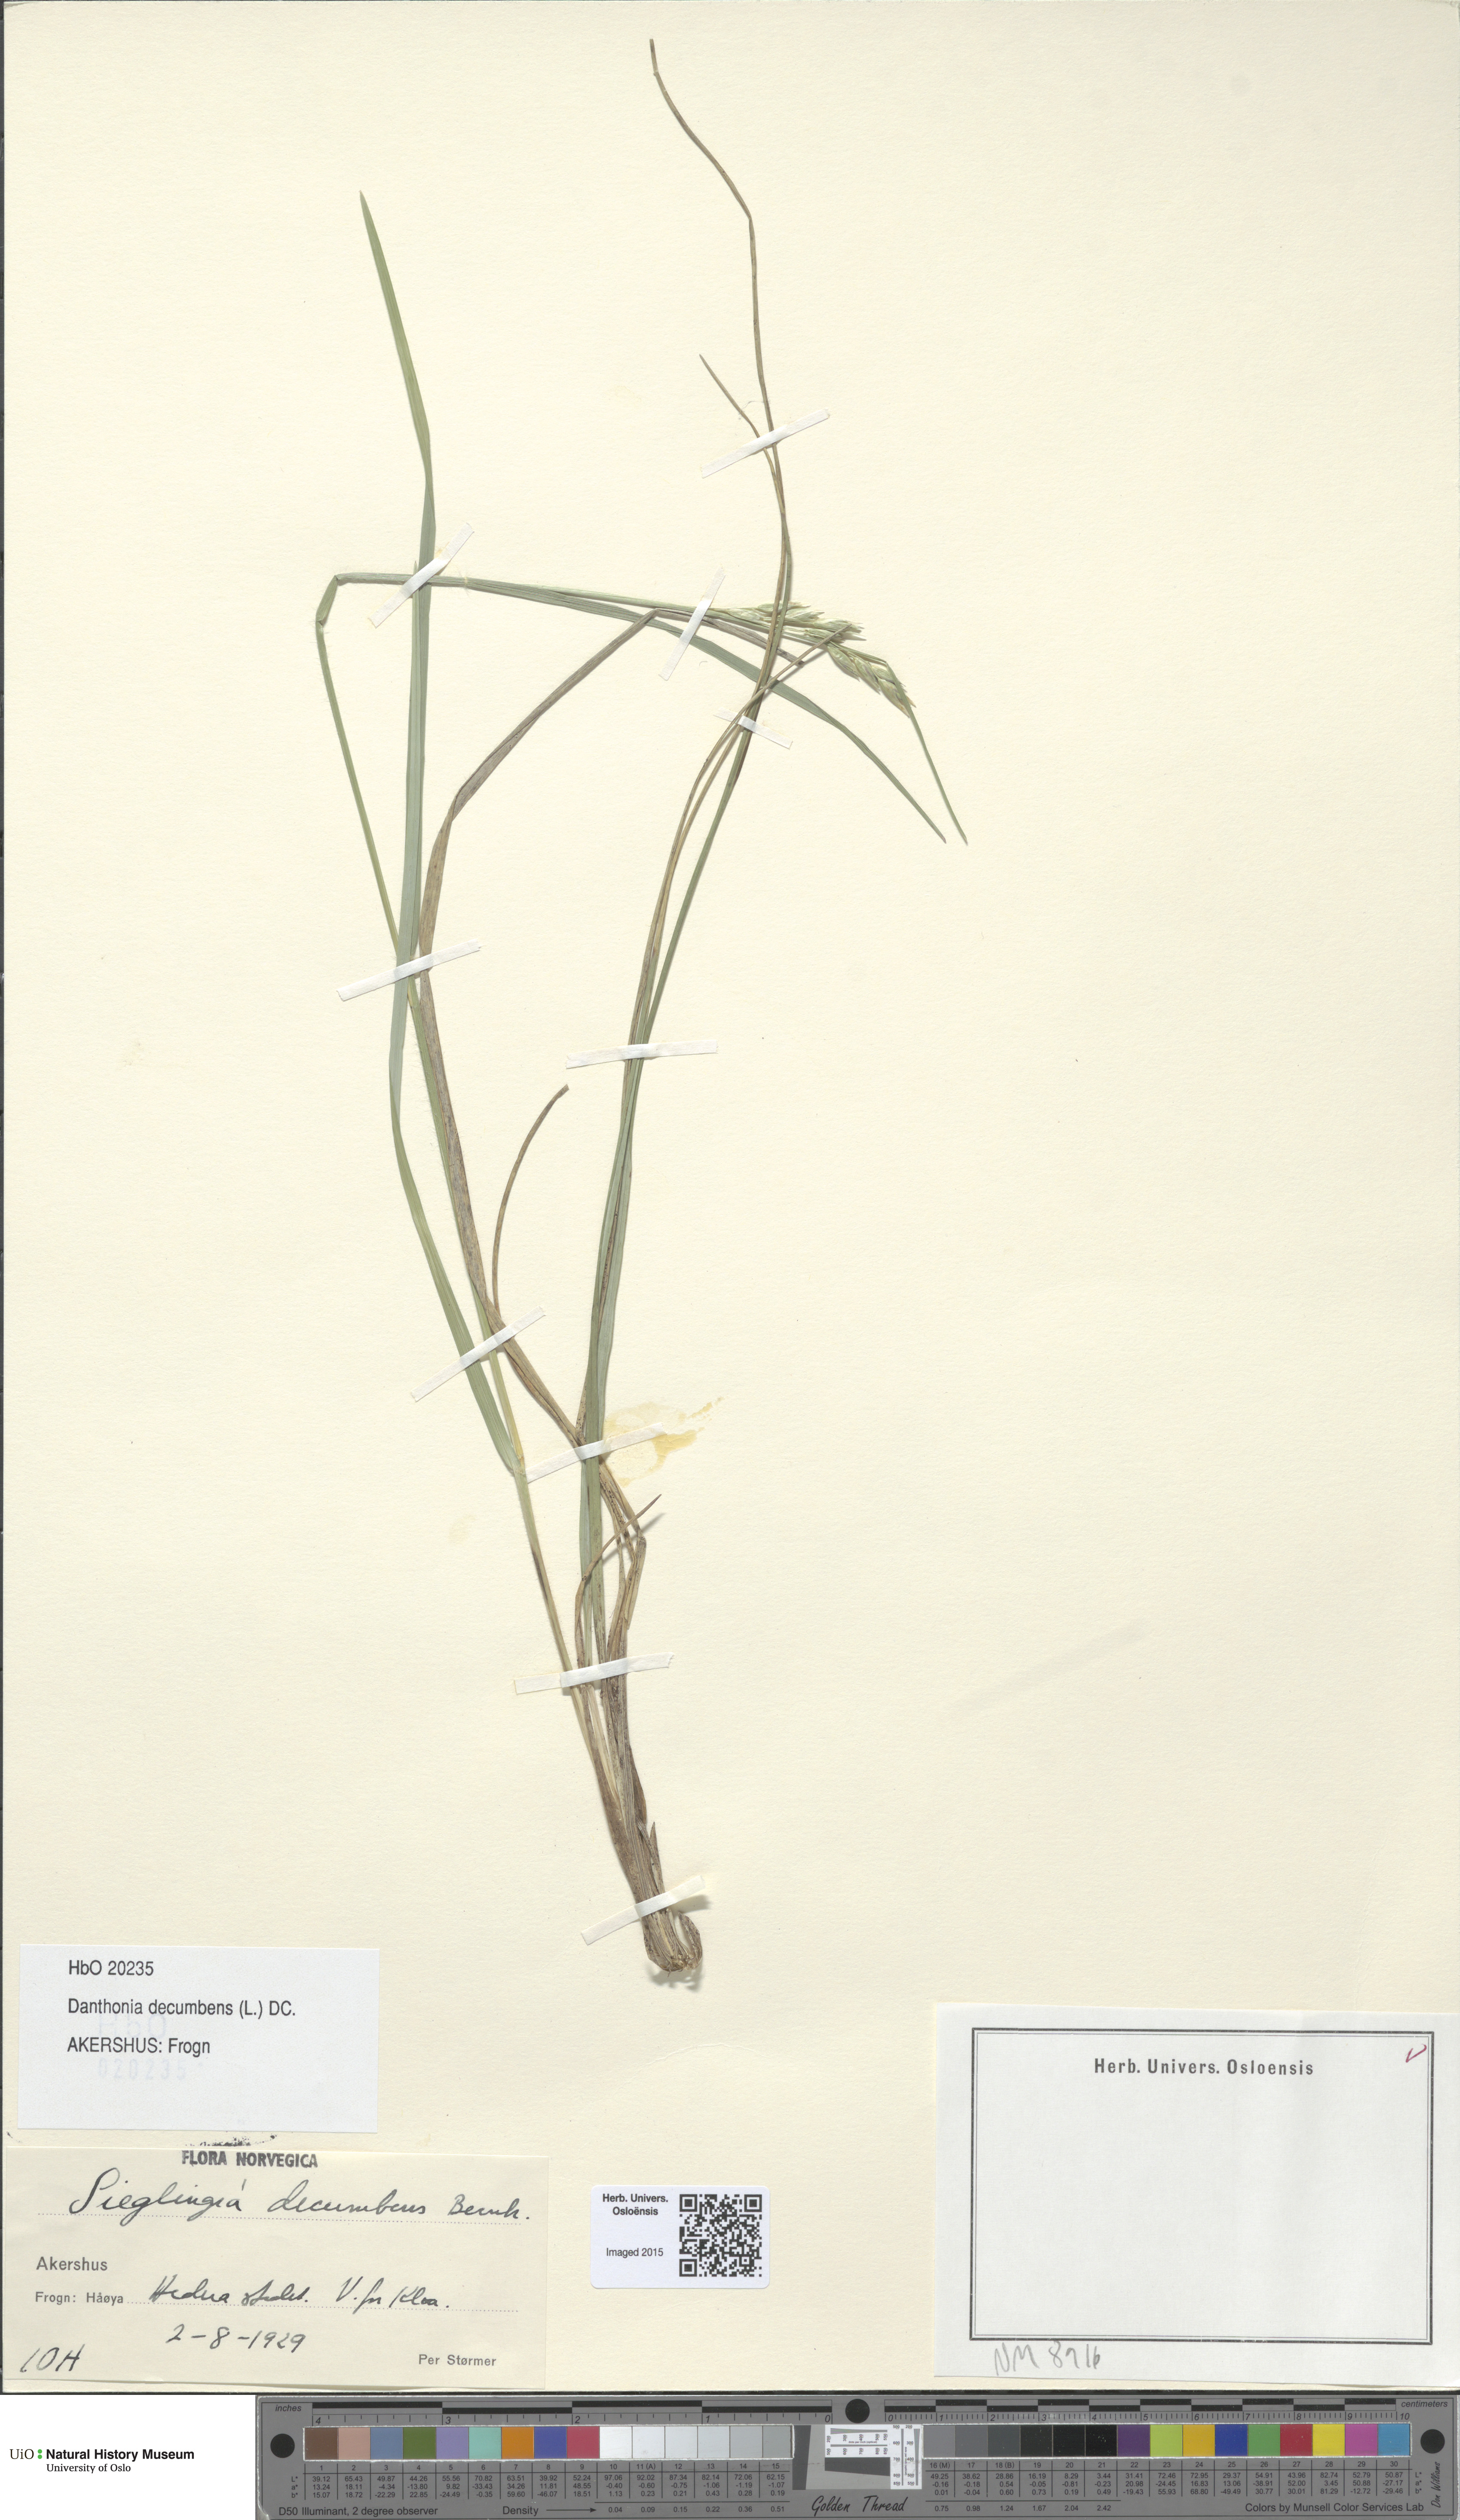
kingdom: Plantae
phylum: Tracheophyta
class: Liliopsida
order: Poales
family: Poaceae
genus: Danthonia
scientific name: Danthonia decumbens
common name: Common heathgrass
